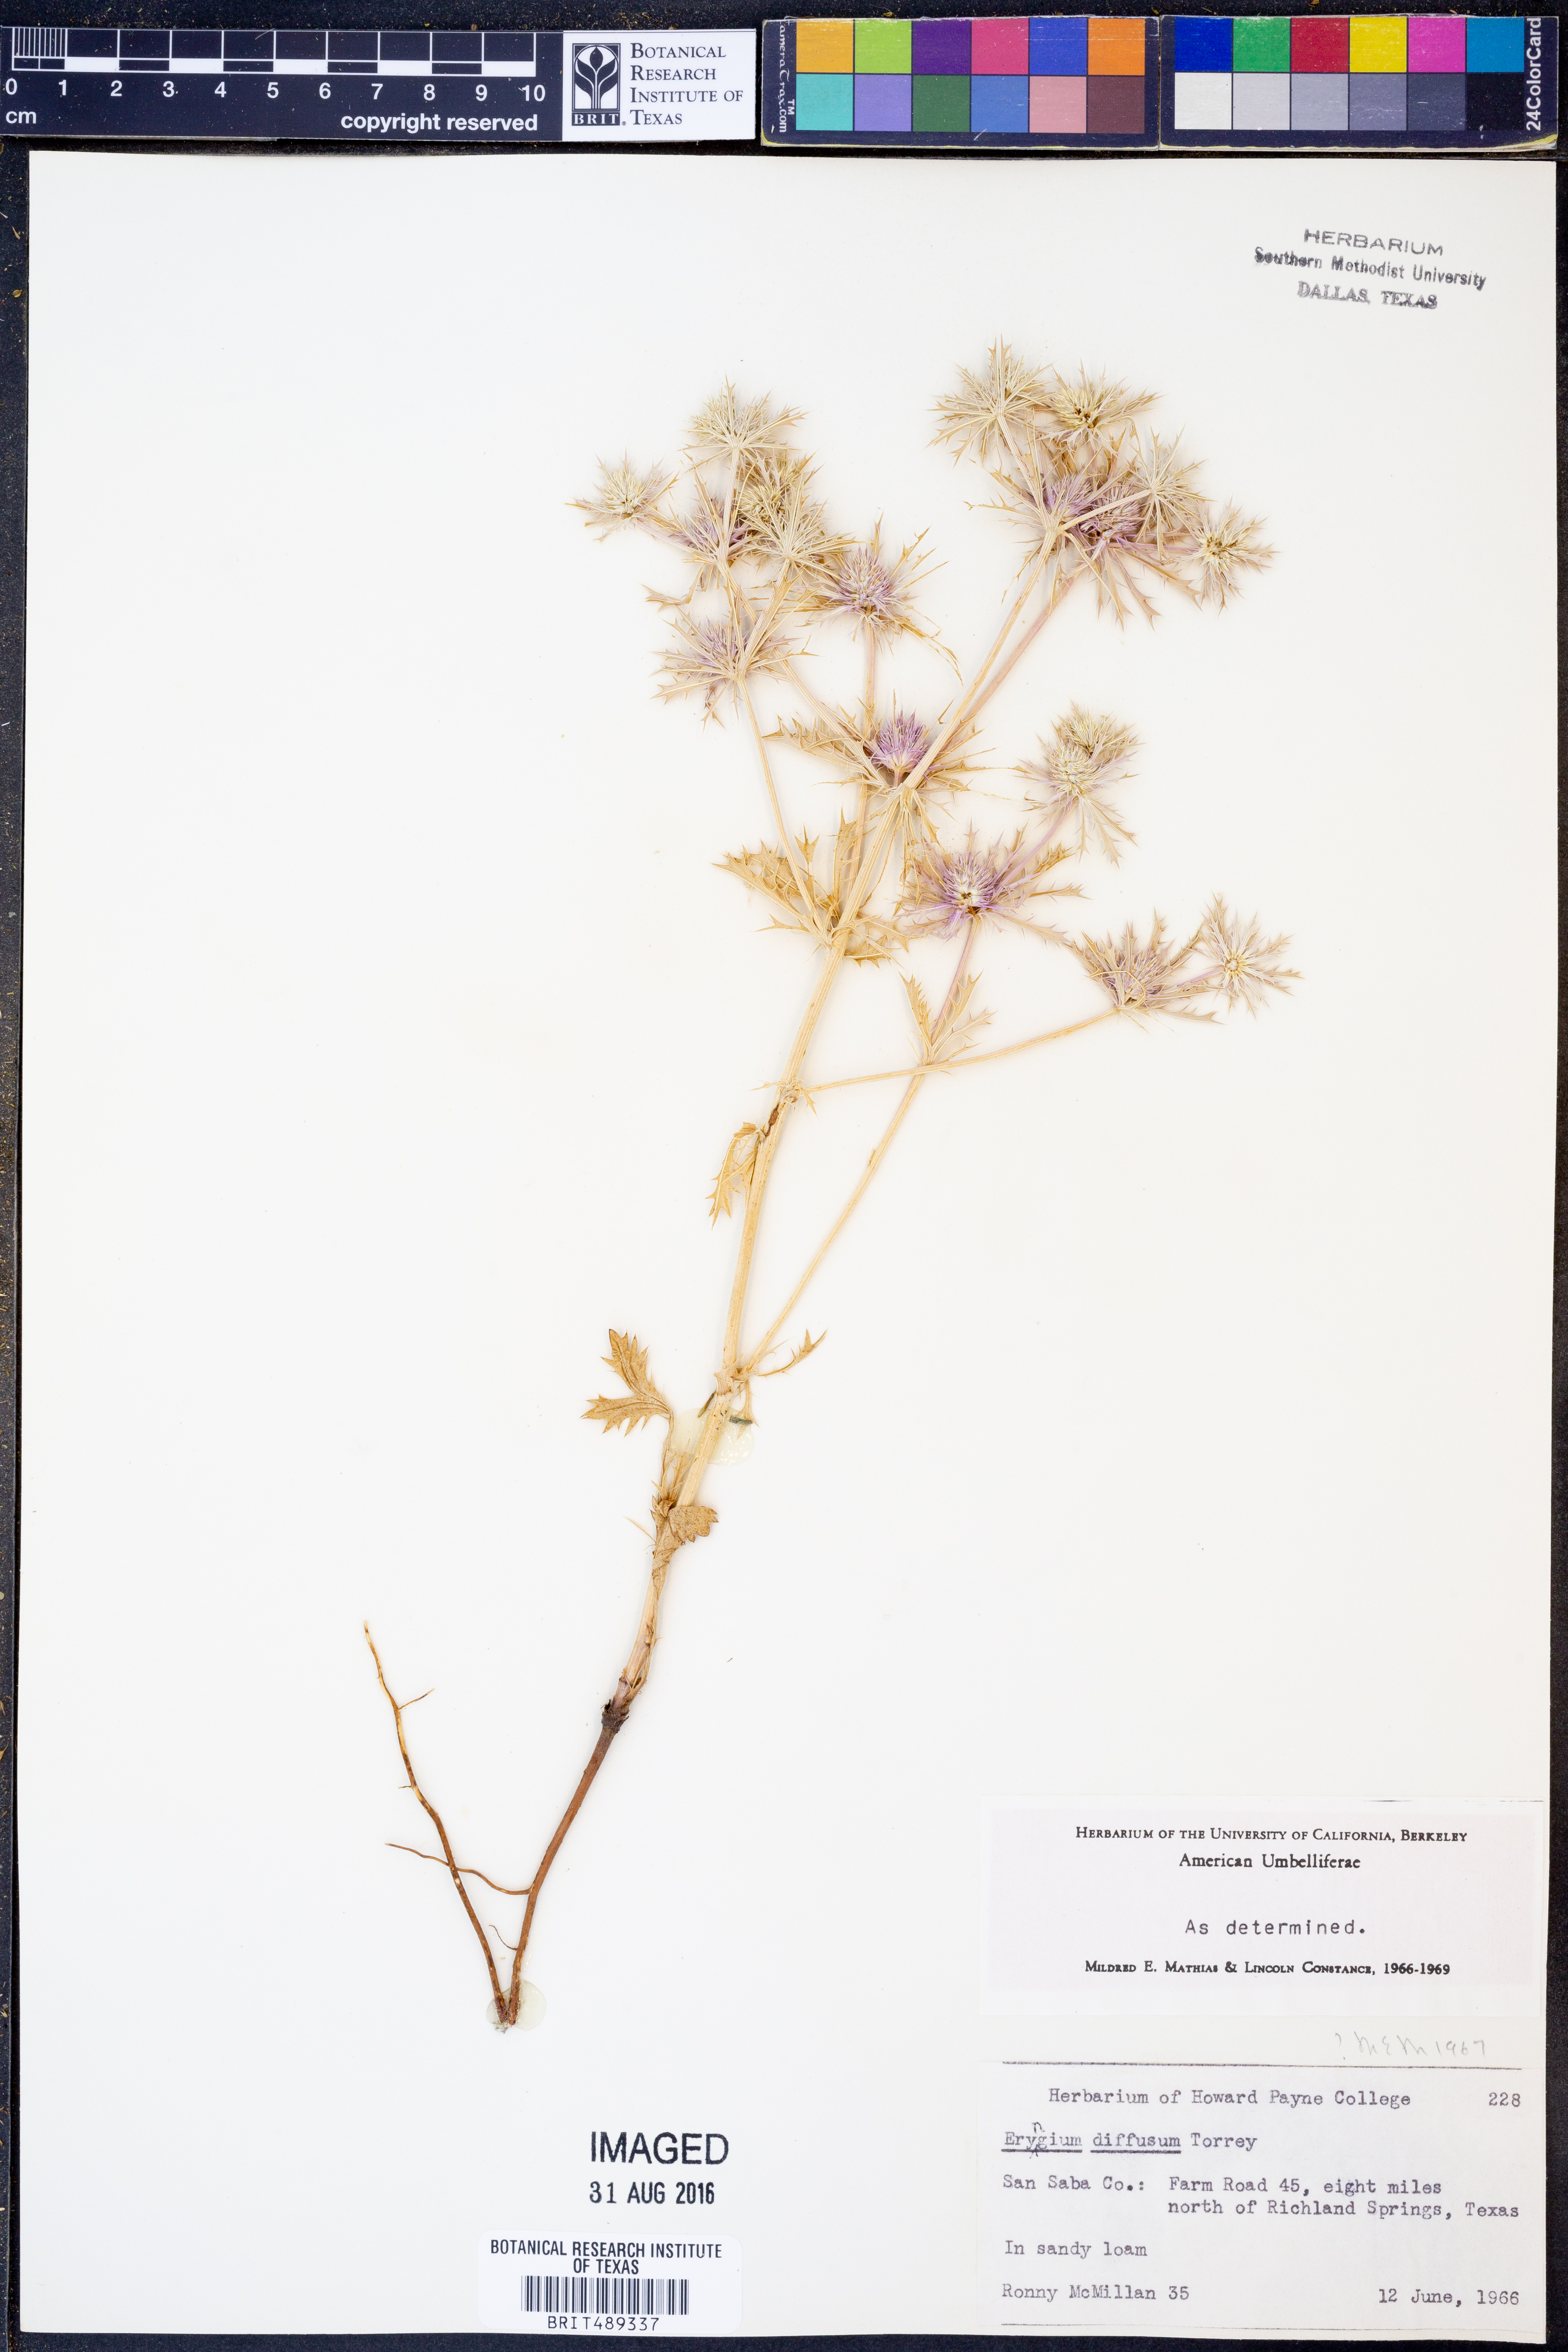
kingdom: Plantae
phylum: Tracheophyta
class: Magnoliopsida
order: Apiales
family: Apiaceae
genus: Eryngium
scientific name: Eryngium diffusum
